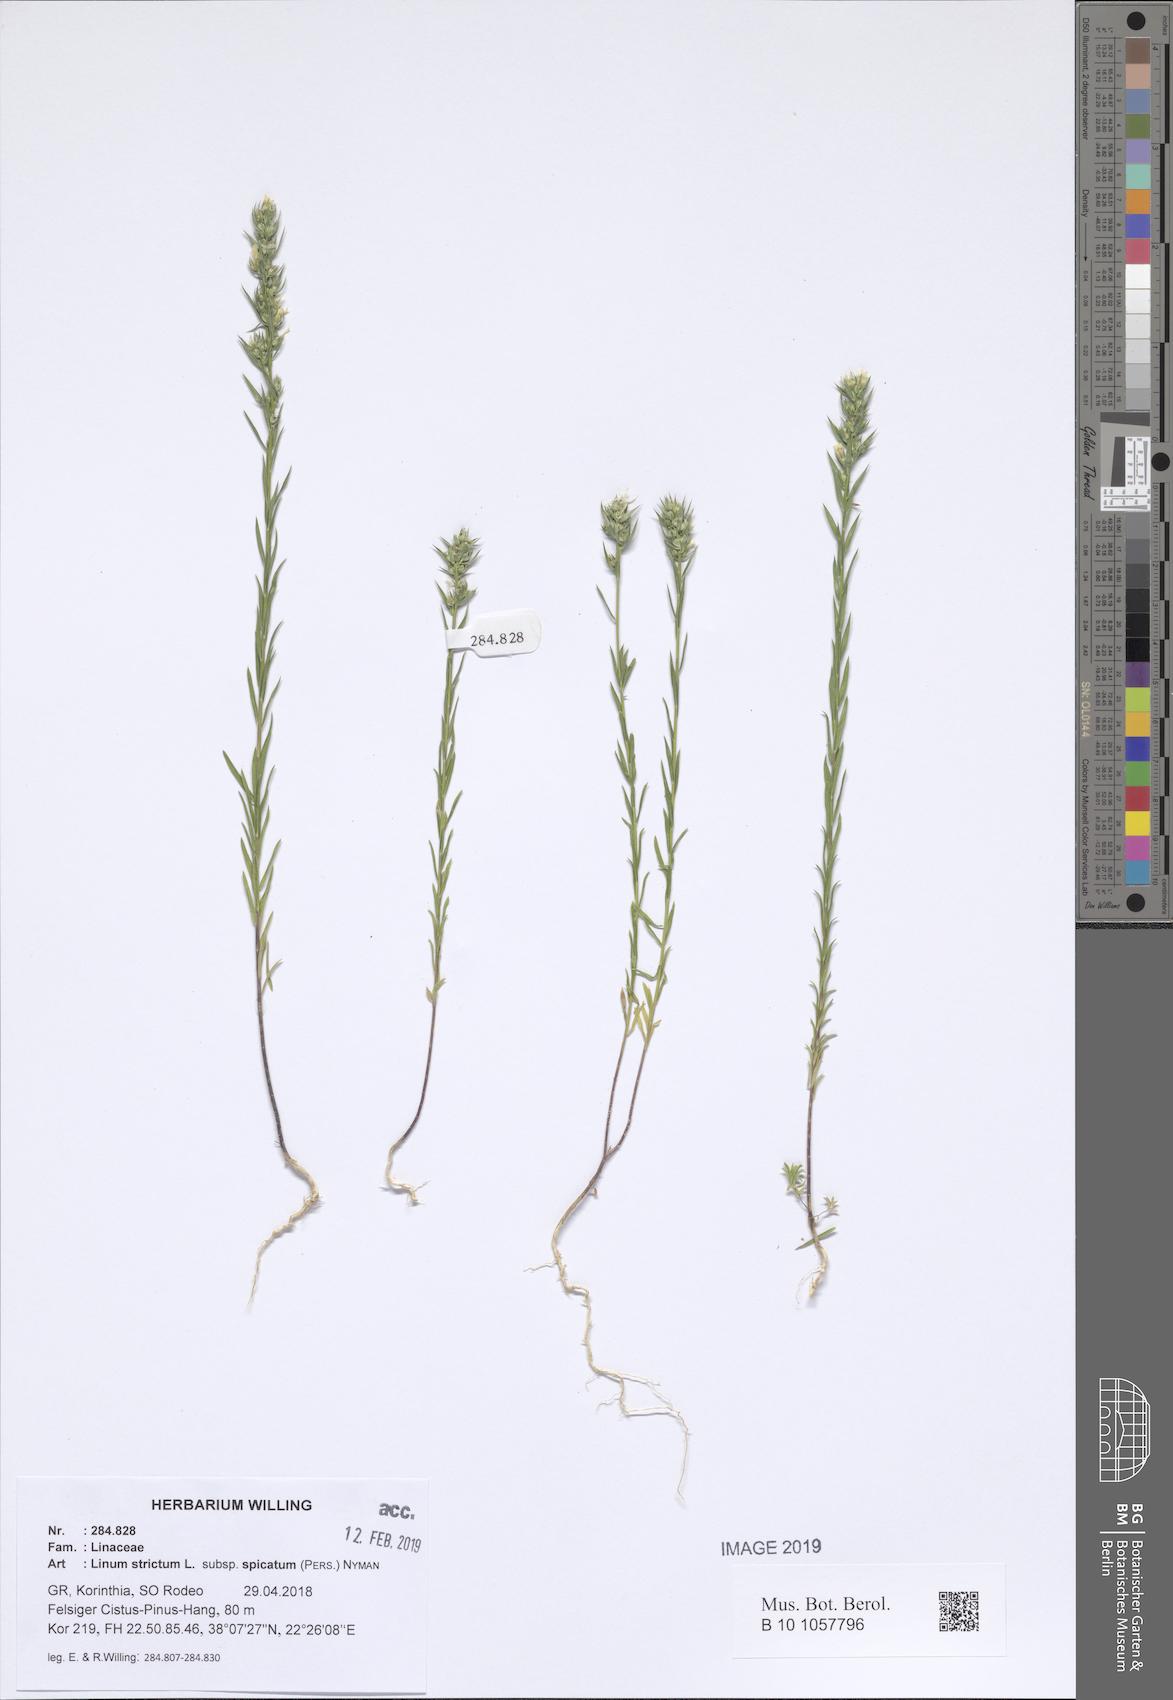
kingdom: Plantae
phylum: Tracheophyta
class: Magnoliopsida
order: Malpighiales
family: Linaceae
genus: Linum
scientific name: Linum strictum
